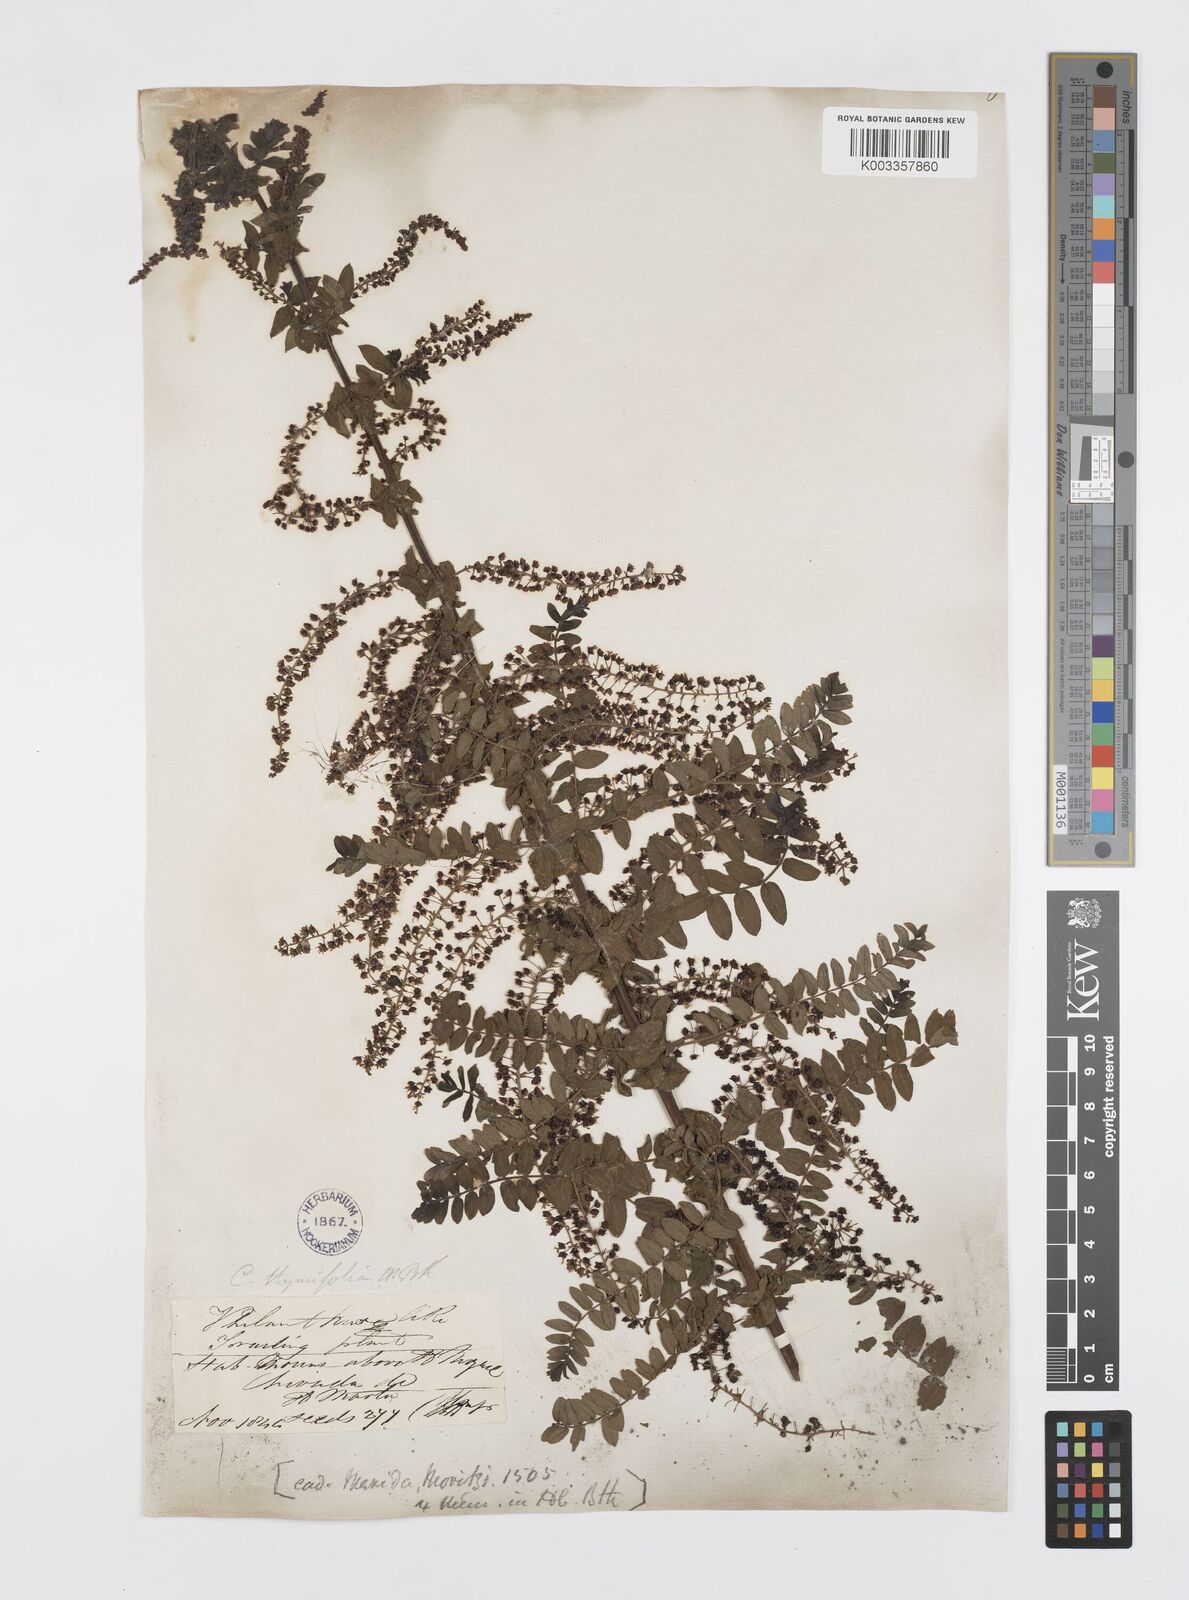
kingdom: Plantae
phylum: Tracheophyta
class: Magnoliopsida
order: Cucurbitales
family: Coriariaceae
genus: Coriaria
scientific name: Coriaria microphylla
